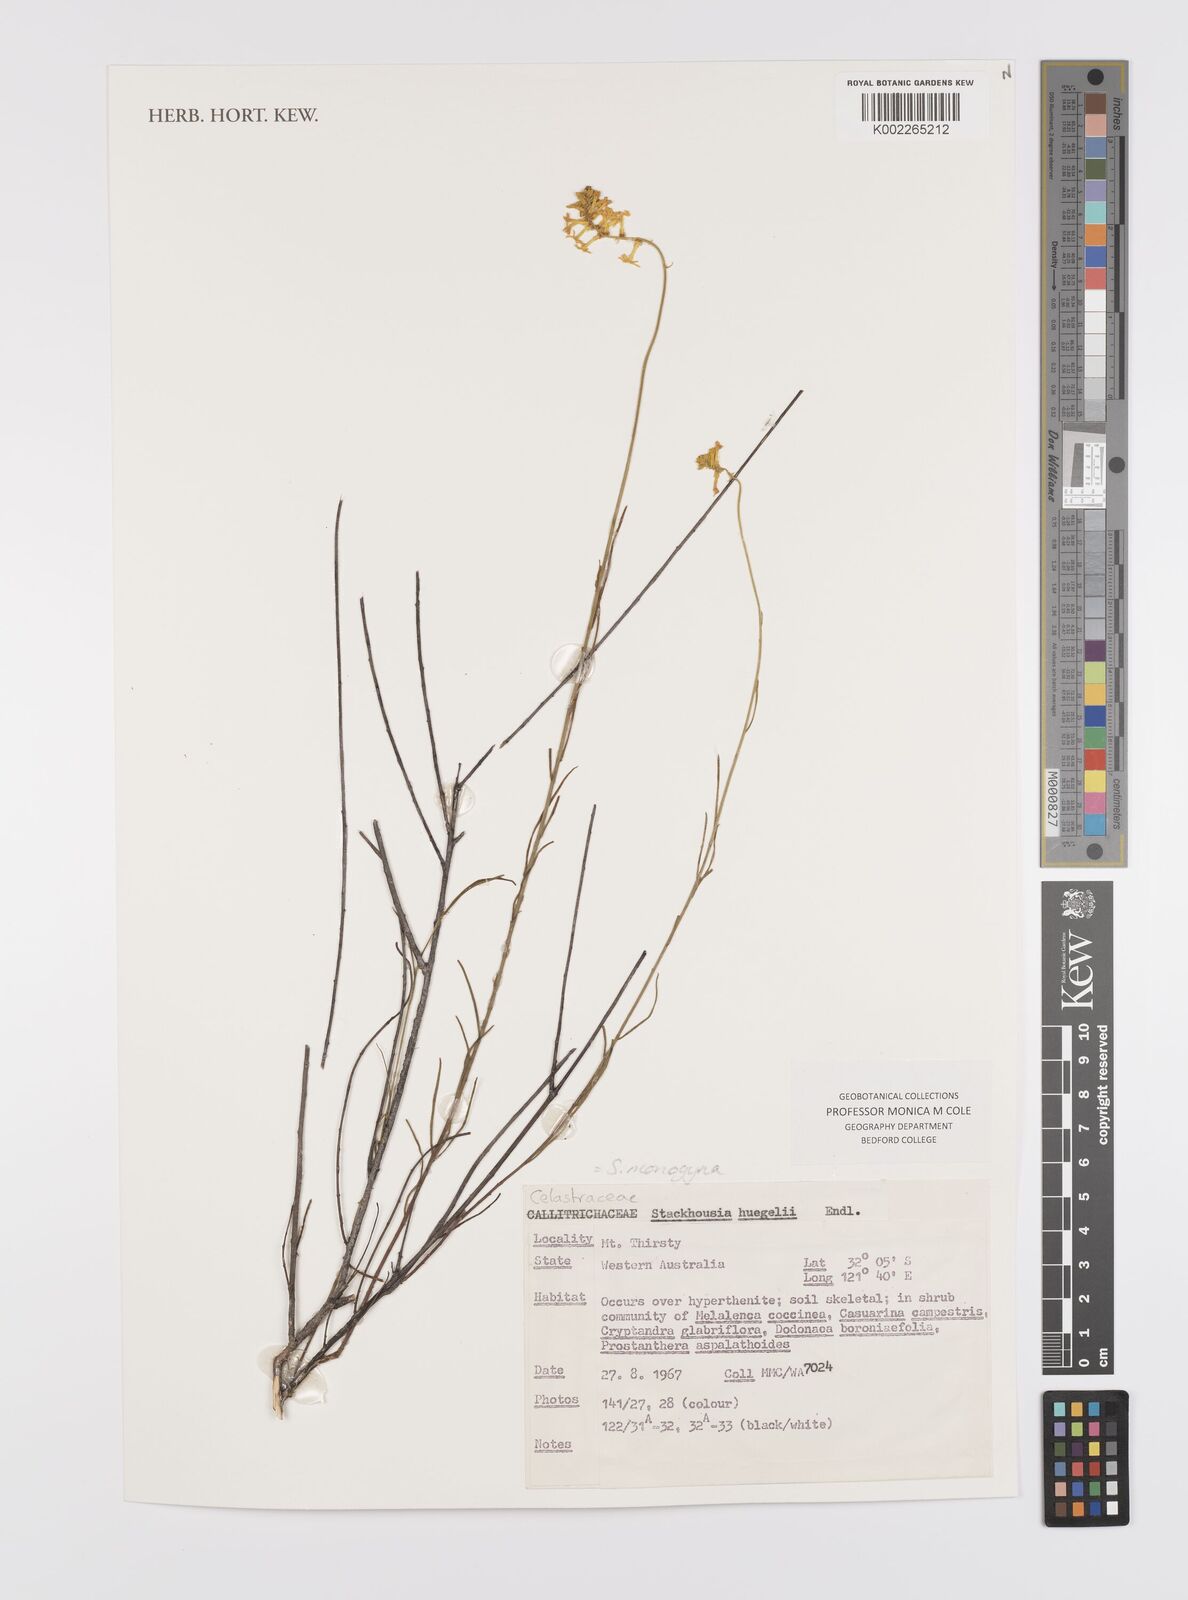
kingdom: Plantae
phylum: Tracheophyta
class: Magnoliopsida
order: Celastrales
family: Celastraceae
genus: Stackhousia
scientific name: Stackhousia monogyna
